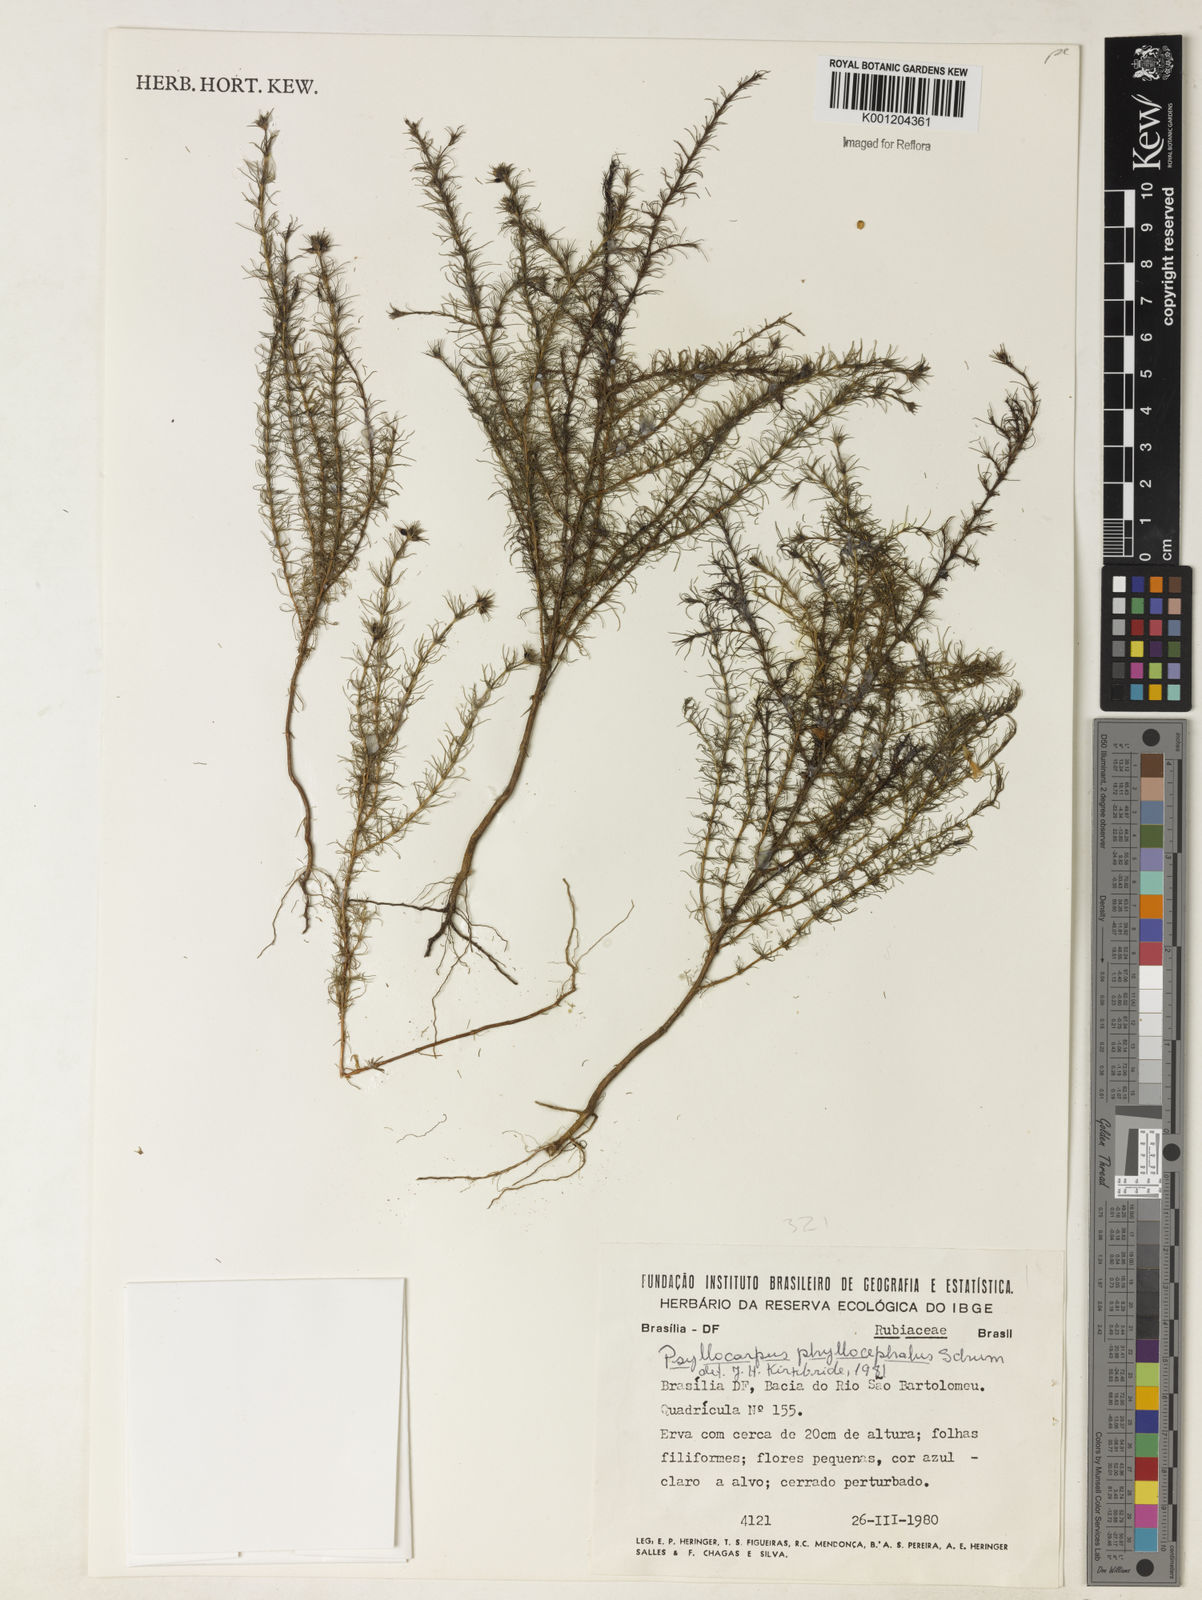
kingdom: Plantae
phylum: Tracheophyta
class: Magnoliopsida
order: Gentianales
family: Rubiaceae
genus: Psyllocarpus
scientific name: Psyllocarpus phyllocephalus
